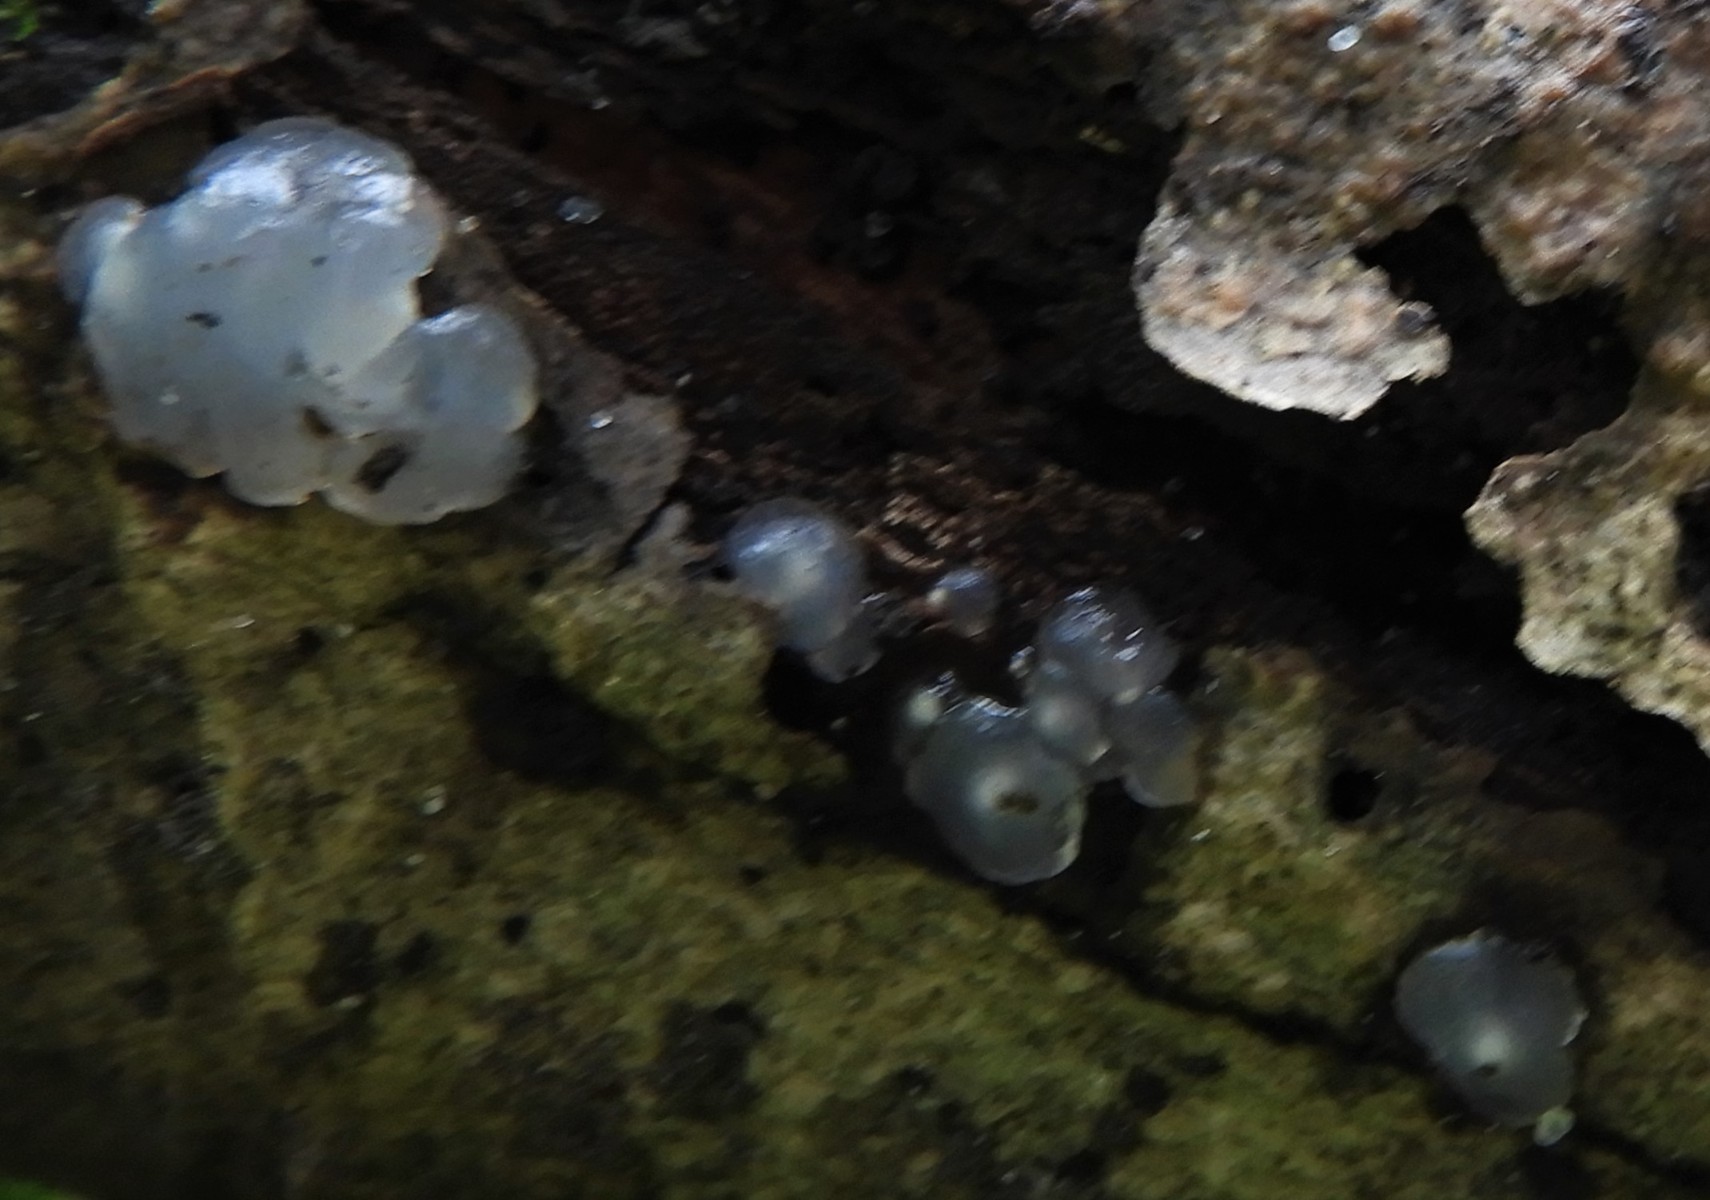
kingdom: Fungi
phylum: Basidiomycota
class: Agaricomycetes
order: Auriculariales
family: Hyaloriaceae
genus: Myxarium
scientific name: Myxarium nucleatum
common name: klar bævretop
